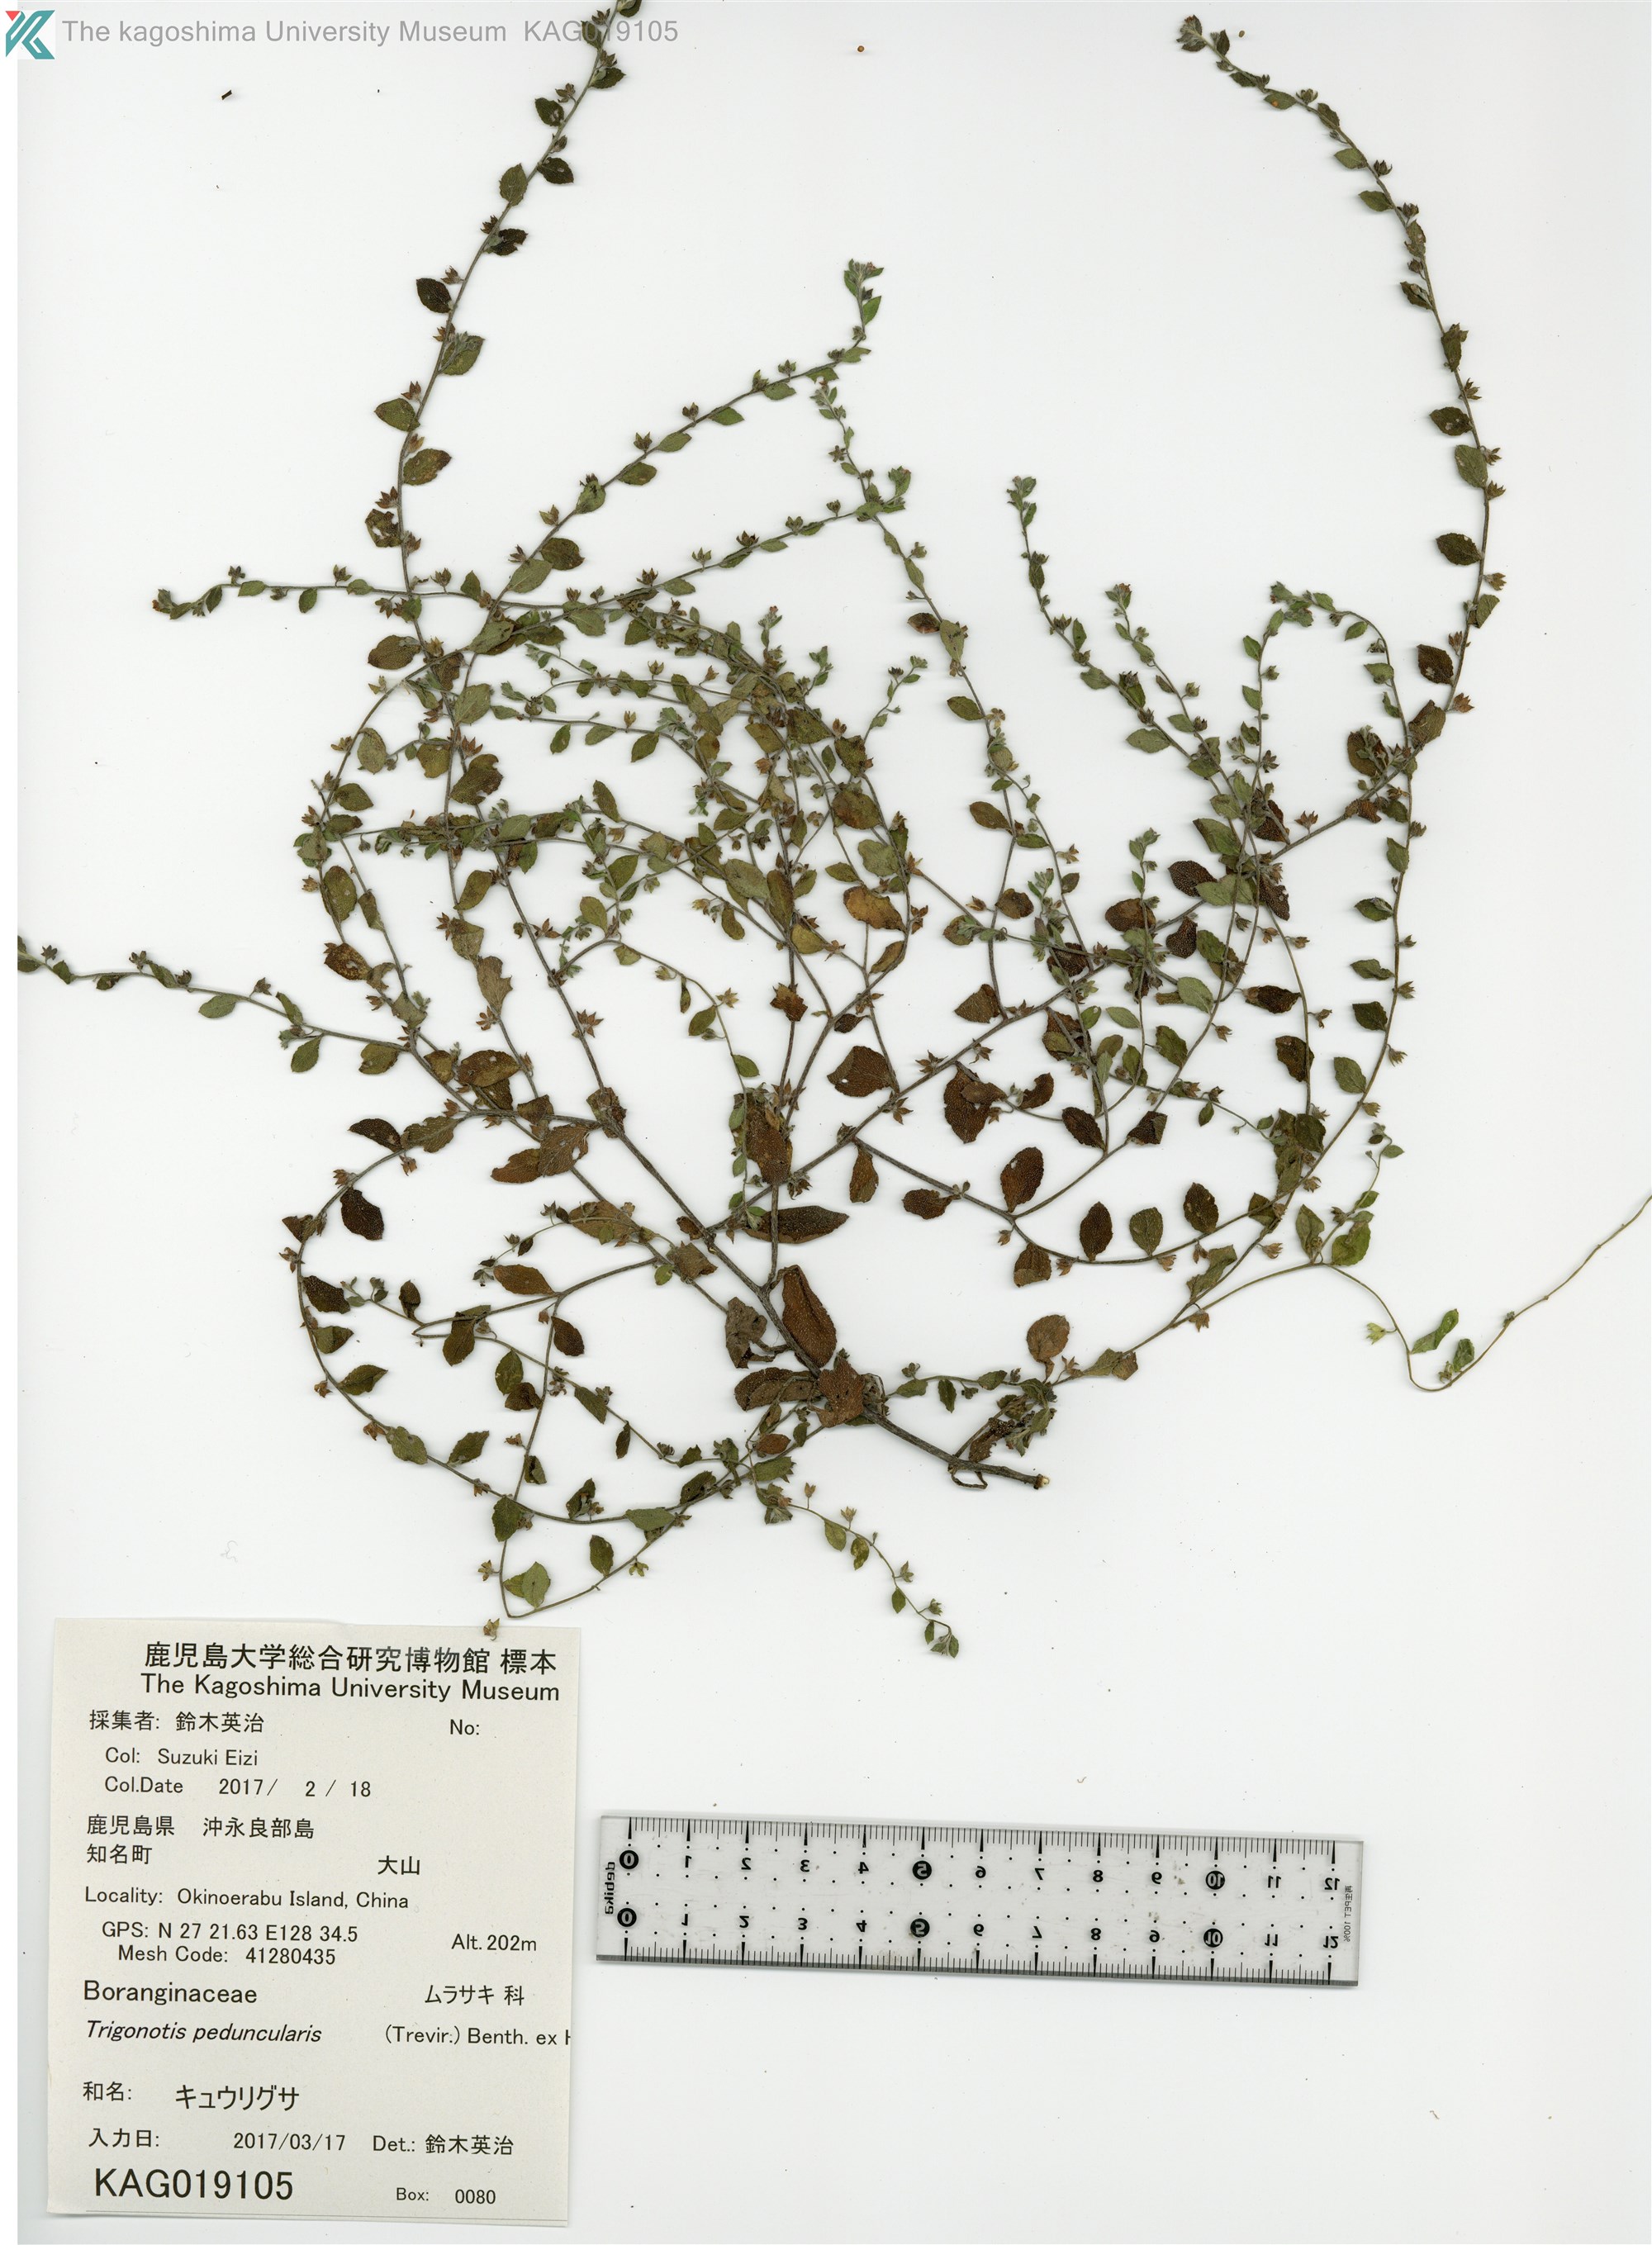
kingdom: Plantae
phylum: Tracheophyta
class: Magnoliopsida
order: Boraginales
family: Boraginaceae
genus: Bothriospermum
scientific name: Bothriospermum zeylanicum
